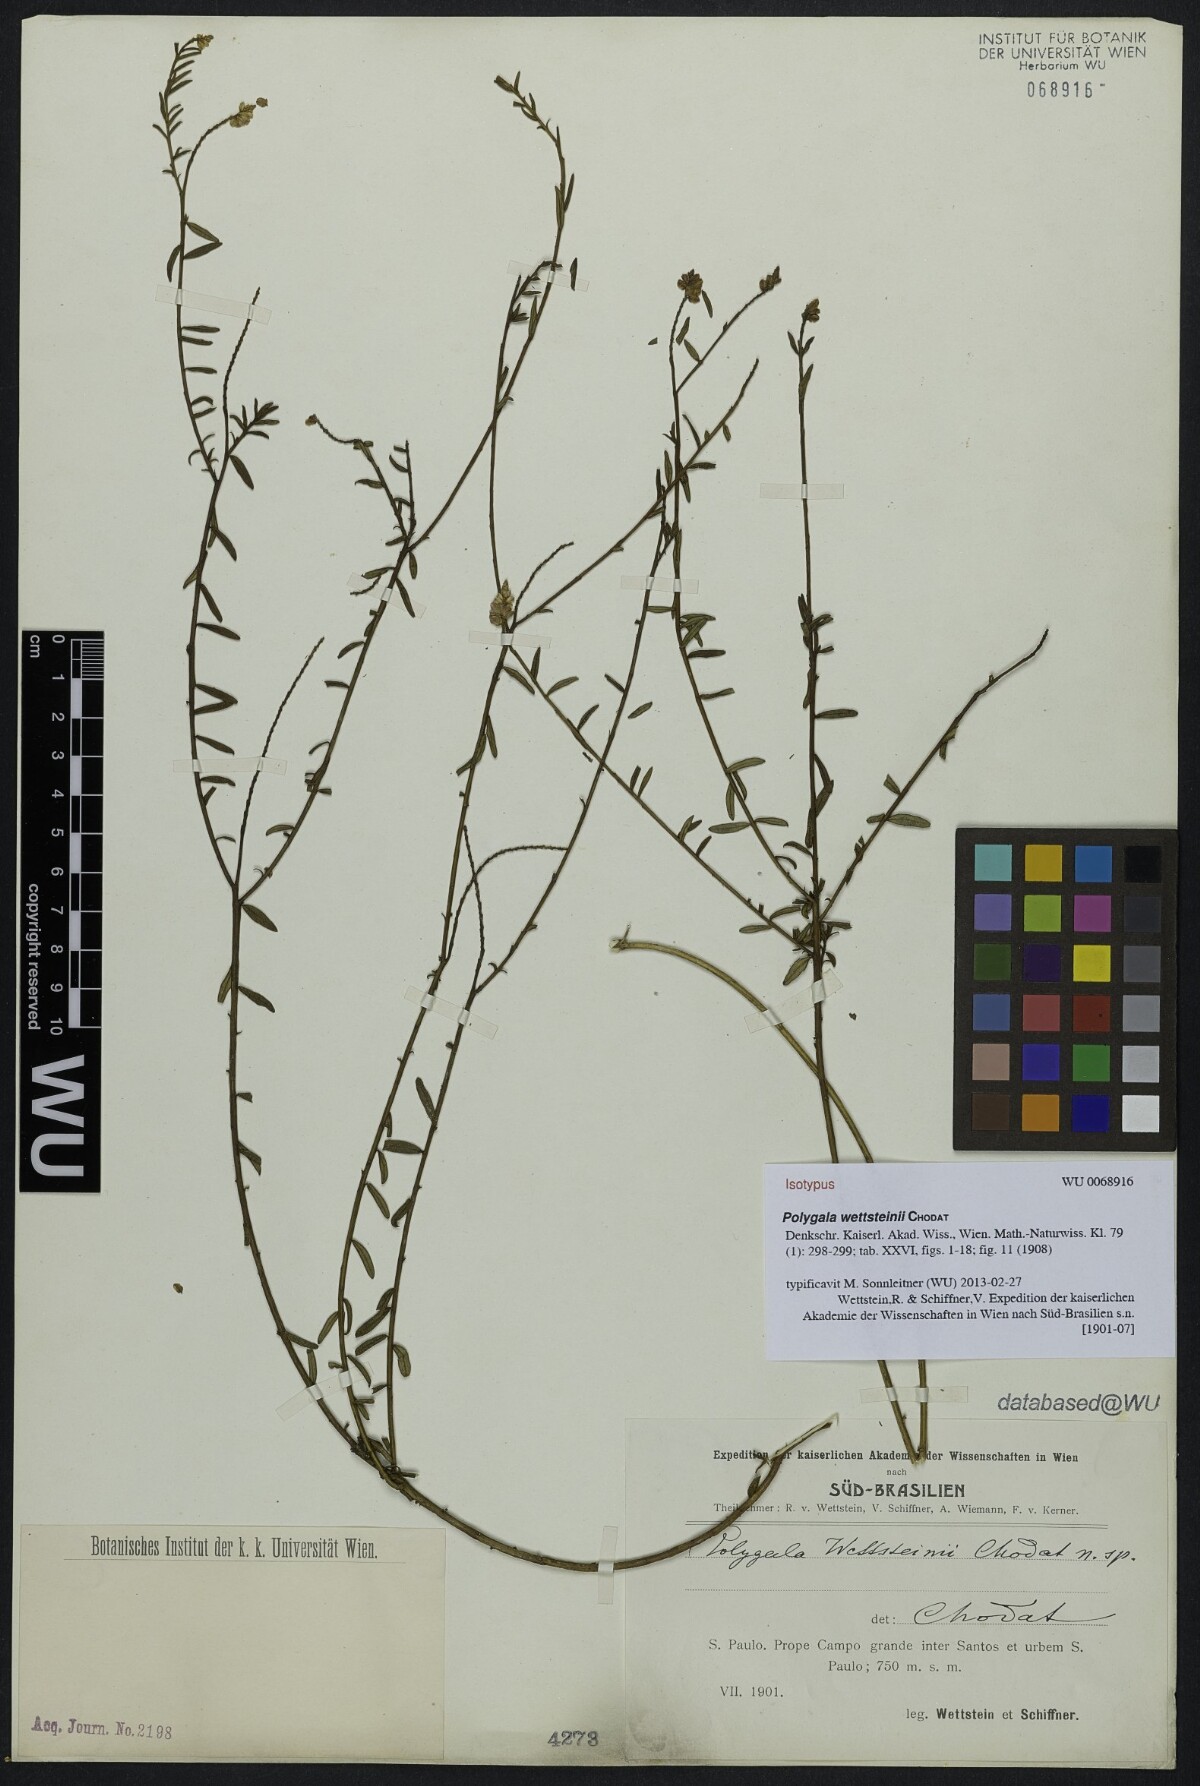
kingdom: Plantae
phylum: Tracheophyta
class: Magnoliopsida
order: Fabales
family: Polygalaceae
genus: Polygala
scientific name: Polygala wettsteinii
